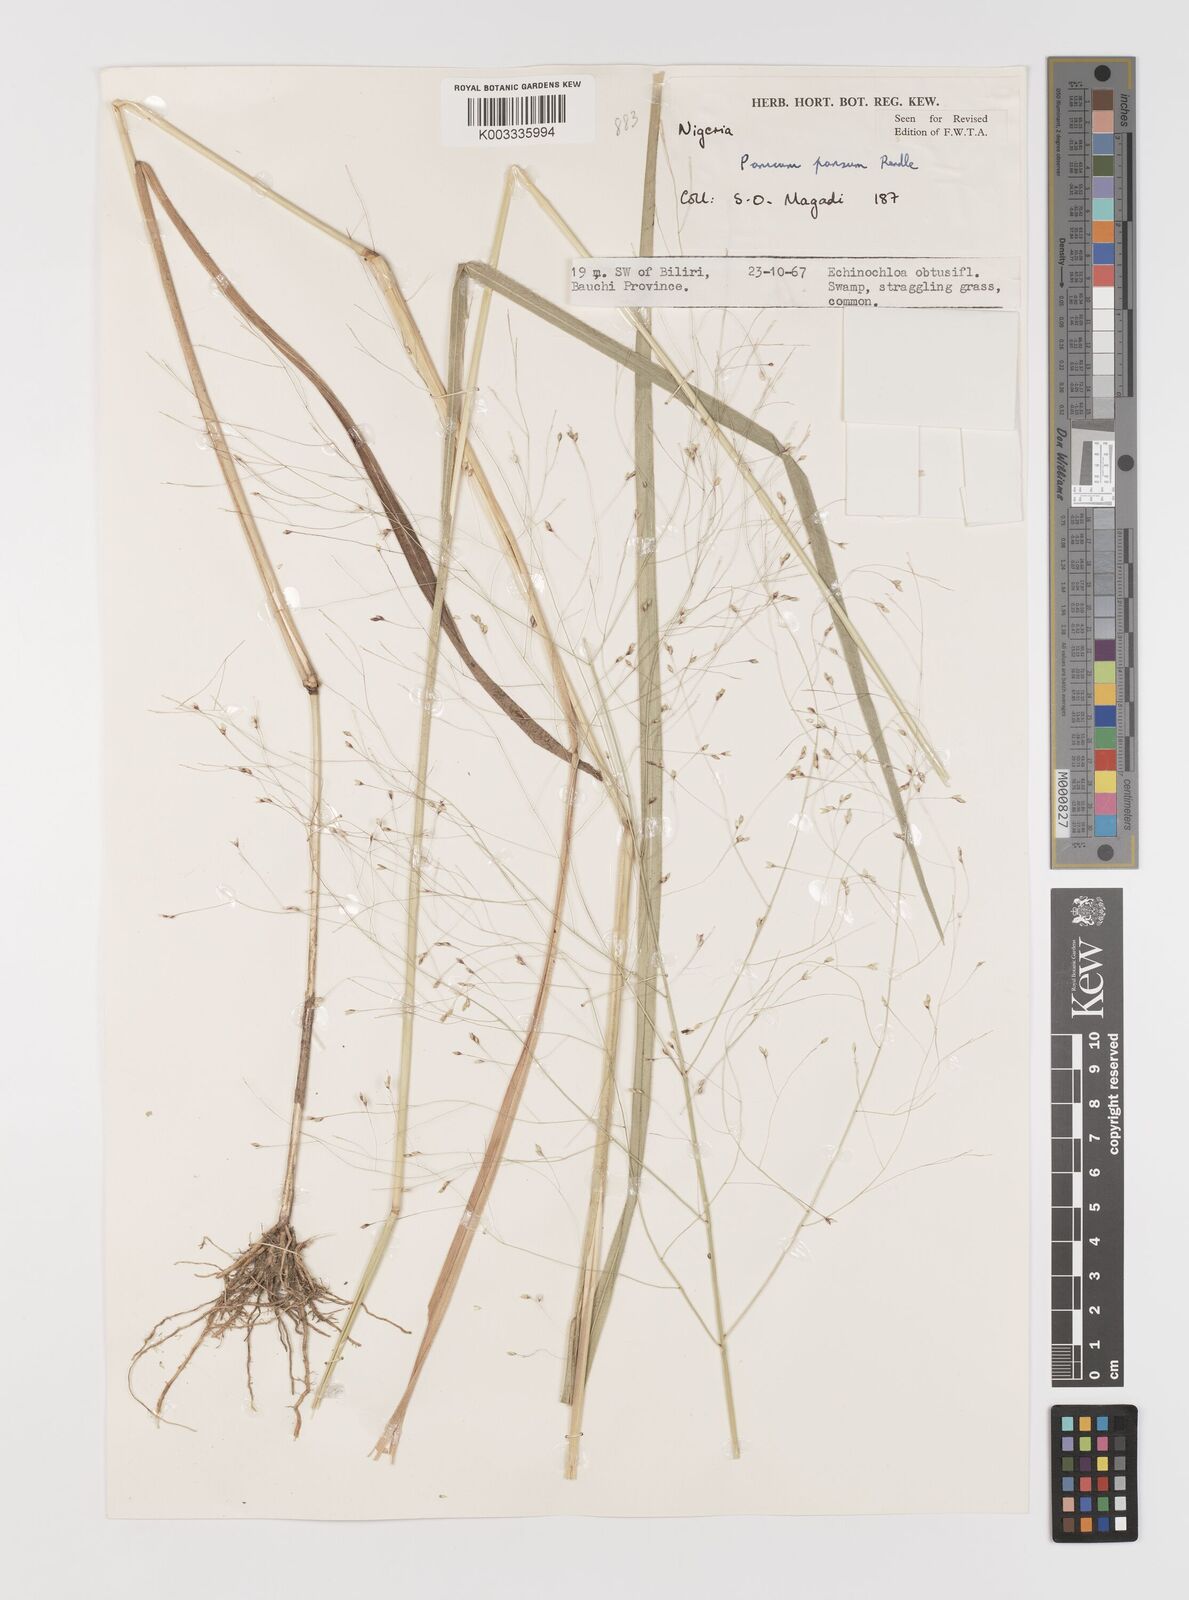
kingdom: Plantae
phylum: Tracheophyta
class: Liliopsida
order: Poales
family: Poaceae
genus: Panicum
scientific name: Panicum pansum
